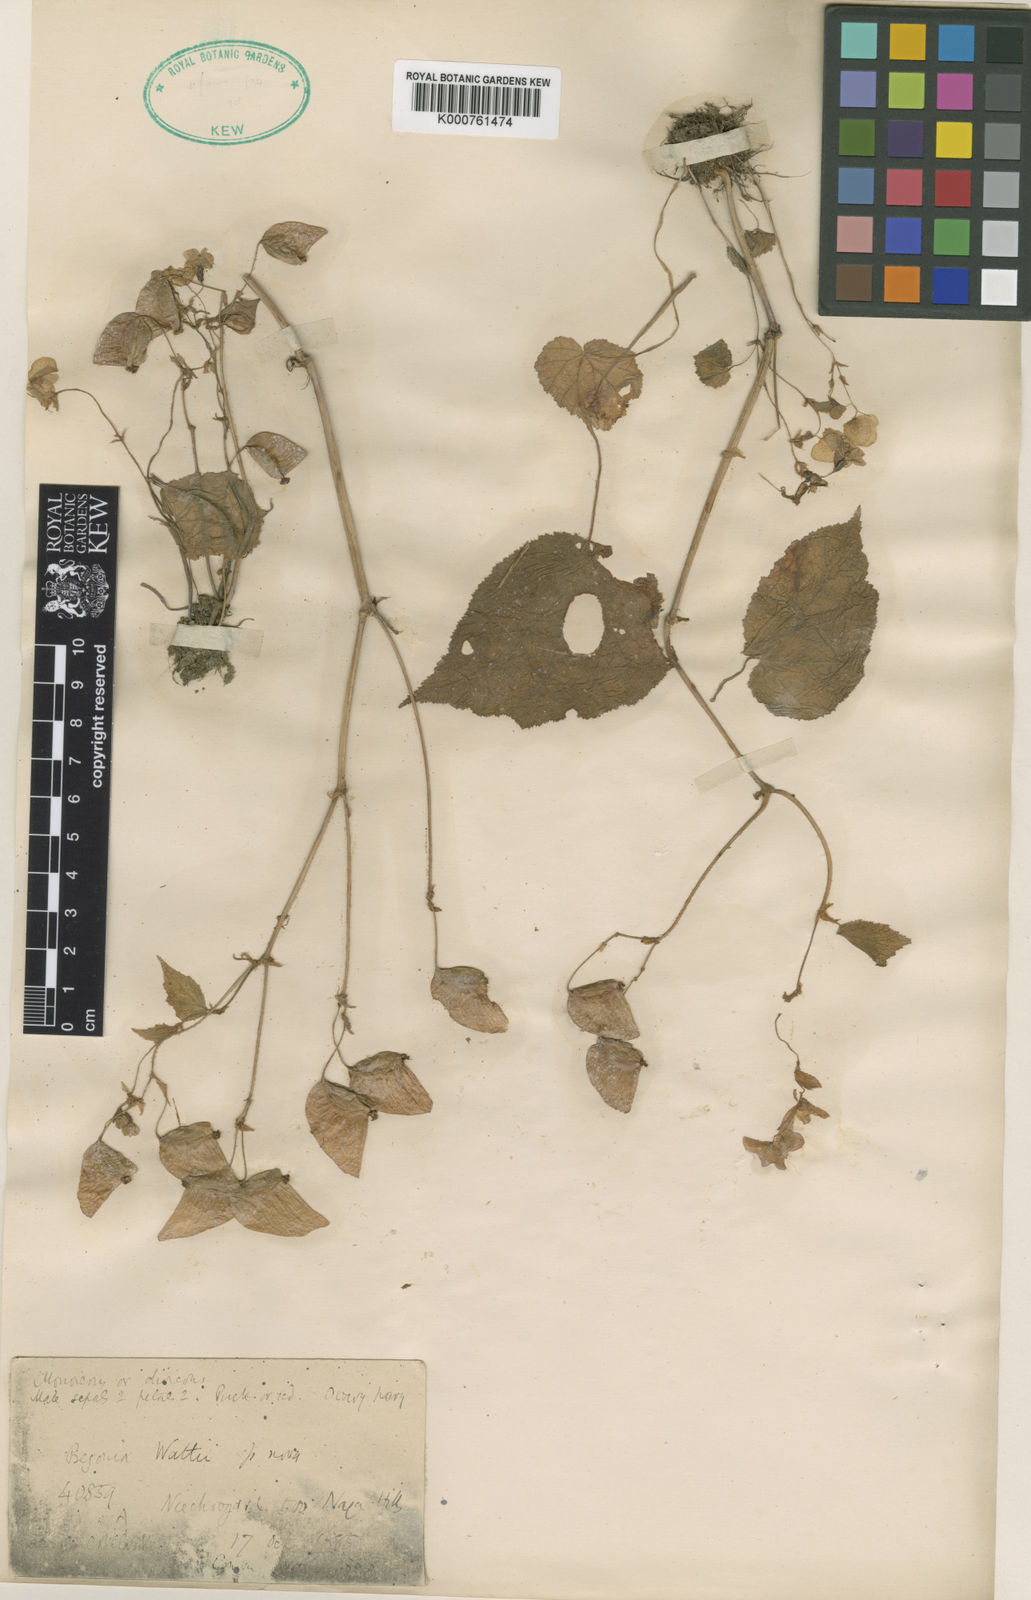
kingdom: Plantae
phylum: Tracheophyta
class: Magnoliopsida
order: Cucurbitales
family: Begoniaceae
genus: Begonia
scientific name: Begonia wattii
